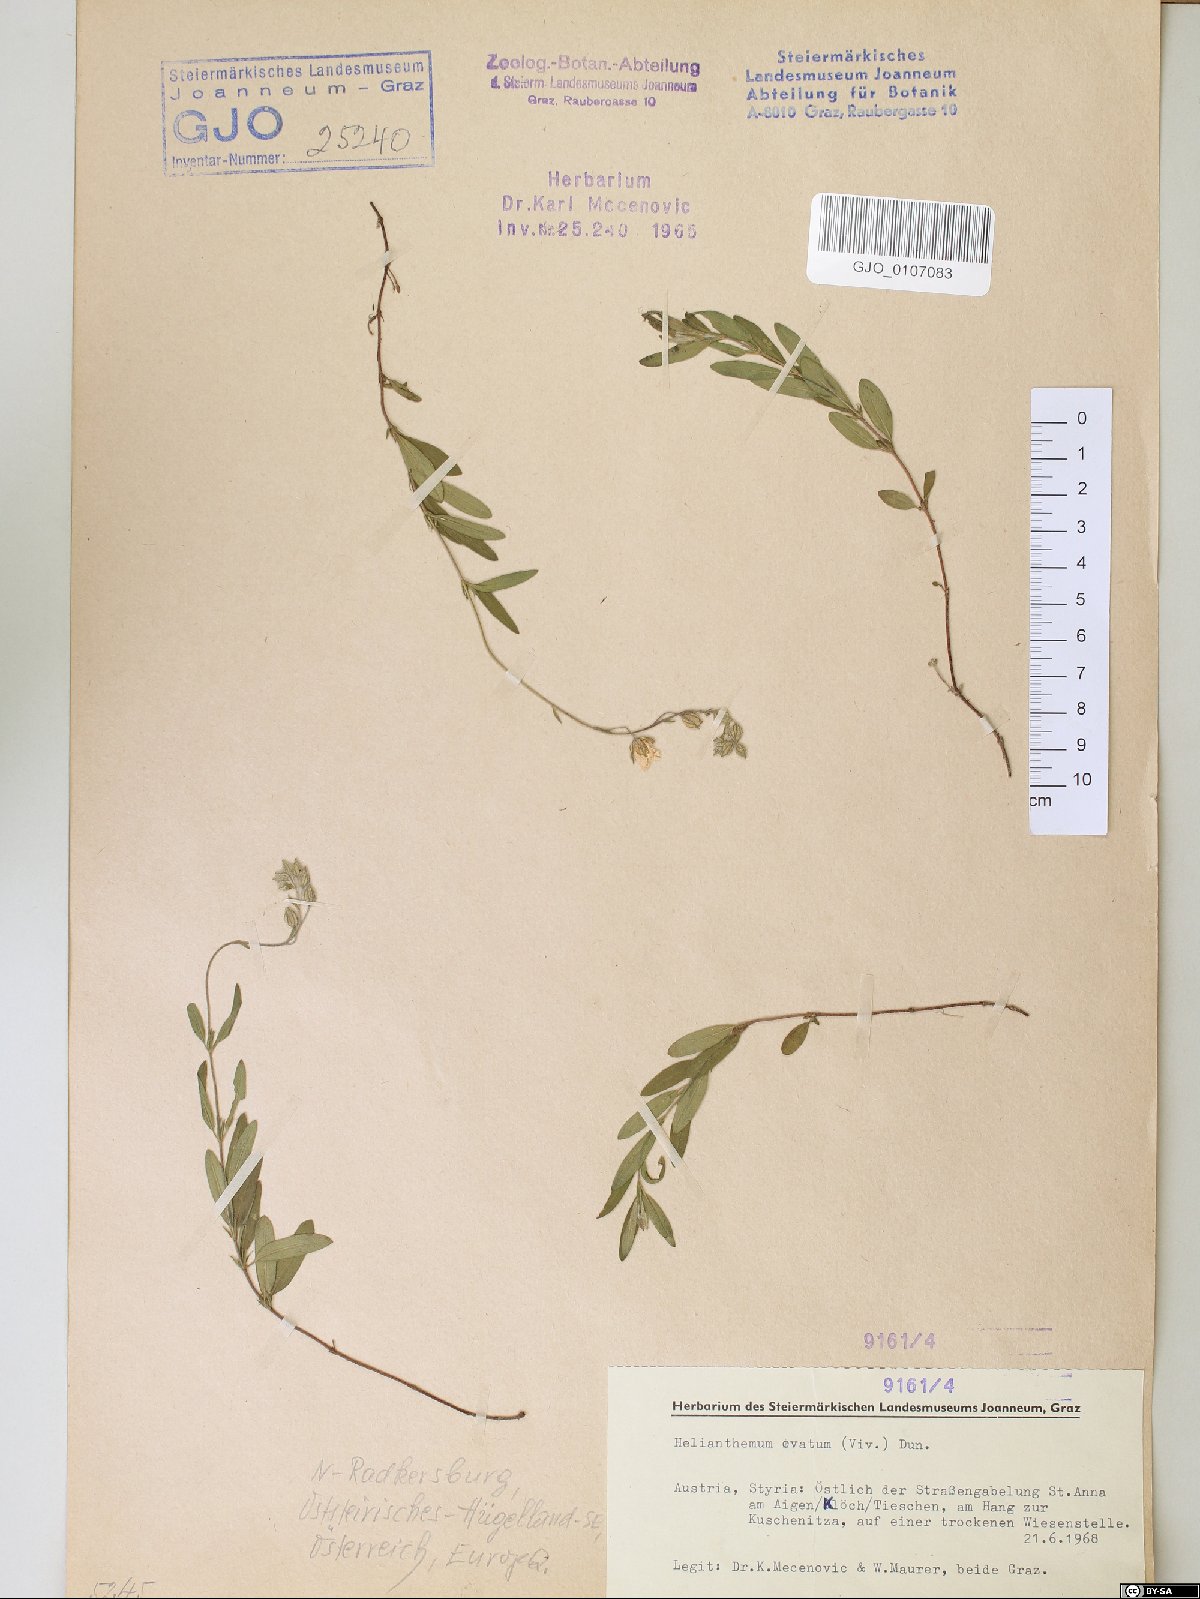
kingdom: Plantae
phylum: Tracheophyta
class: Magnoliopsida
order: Malvales
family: Cistaceae
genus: Helianthemum
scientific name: Helianthemum nummularium
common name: Common rock-rose
